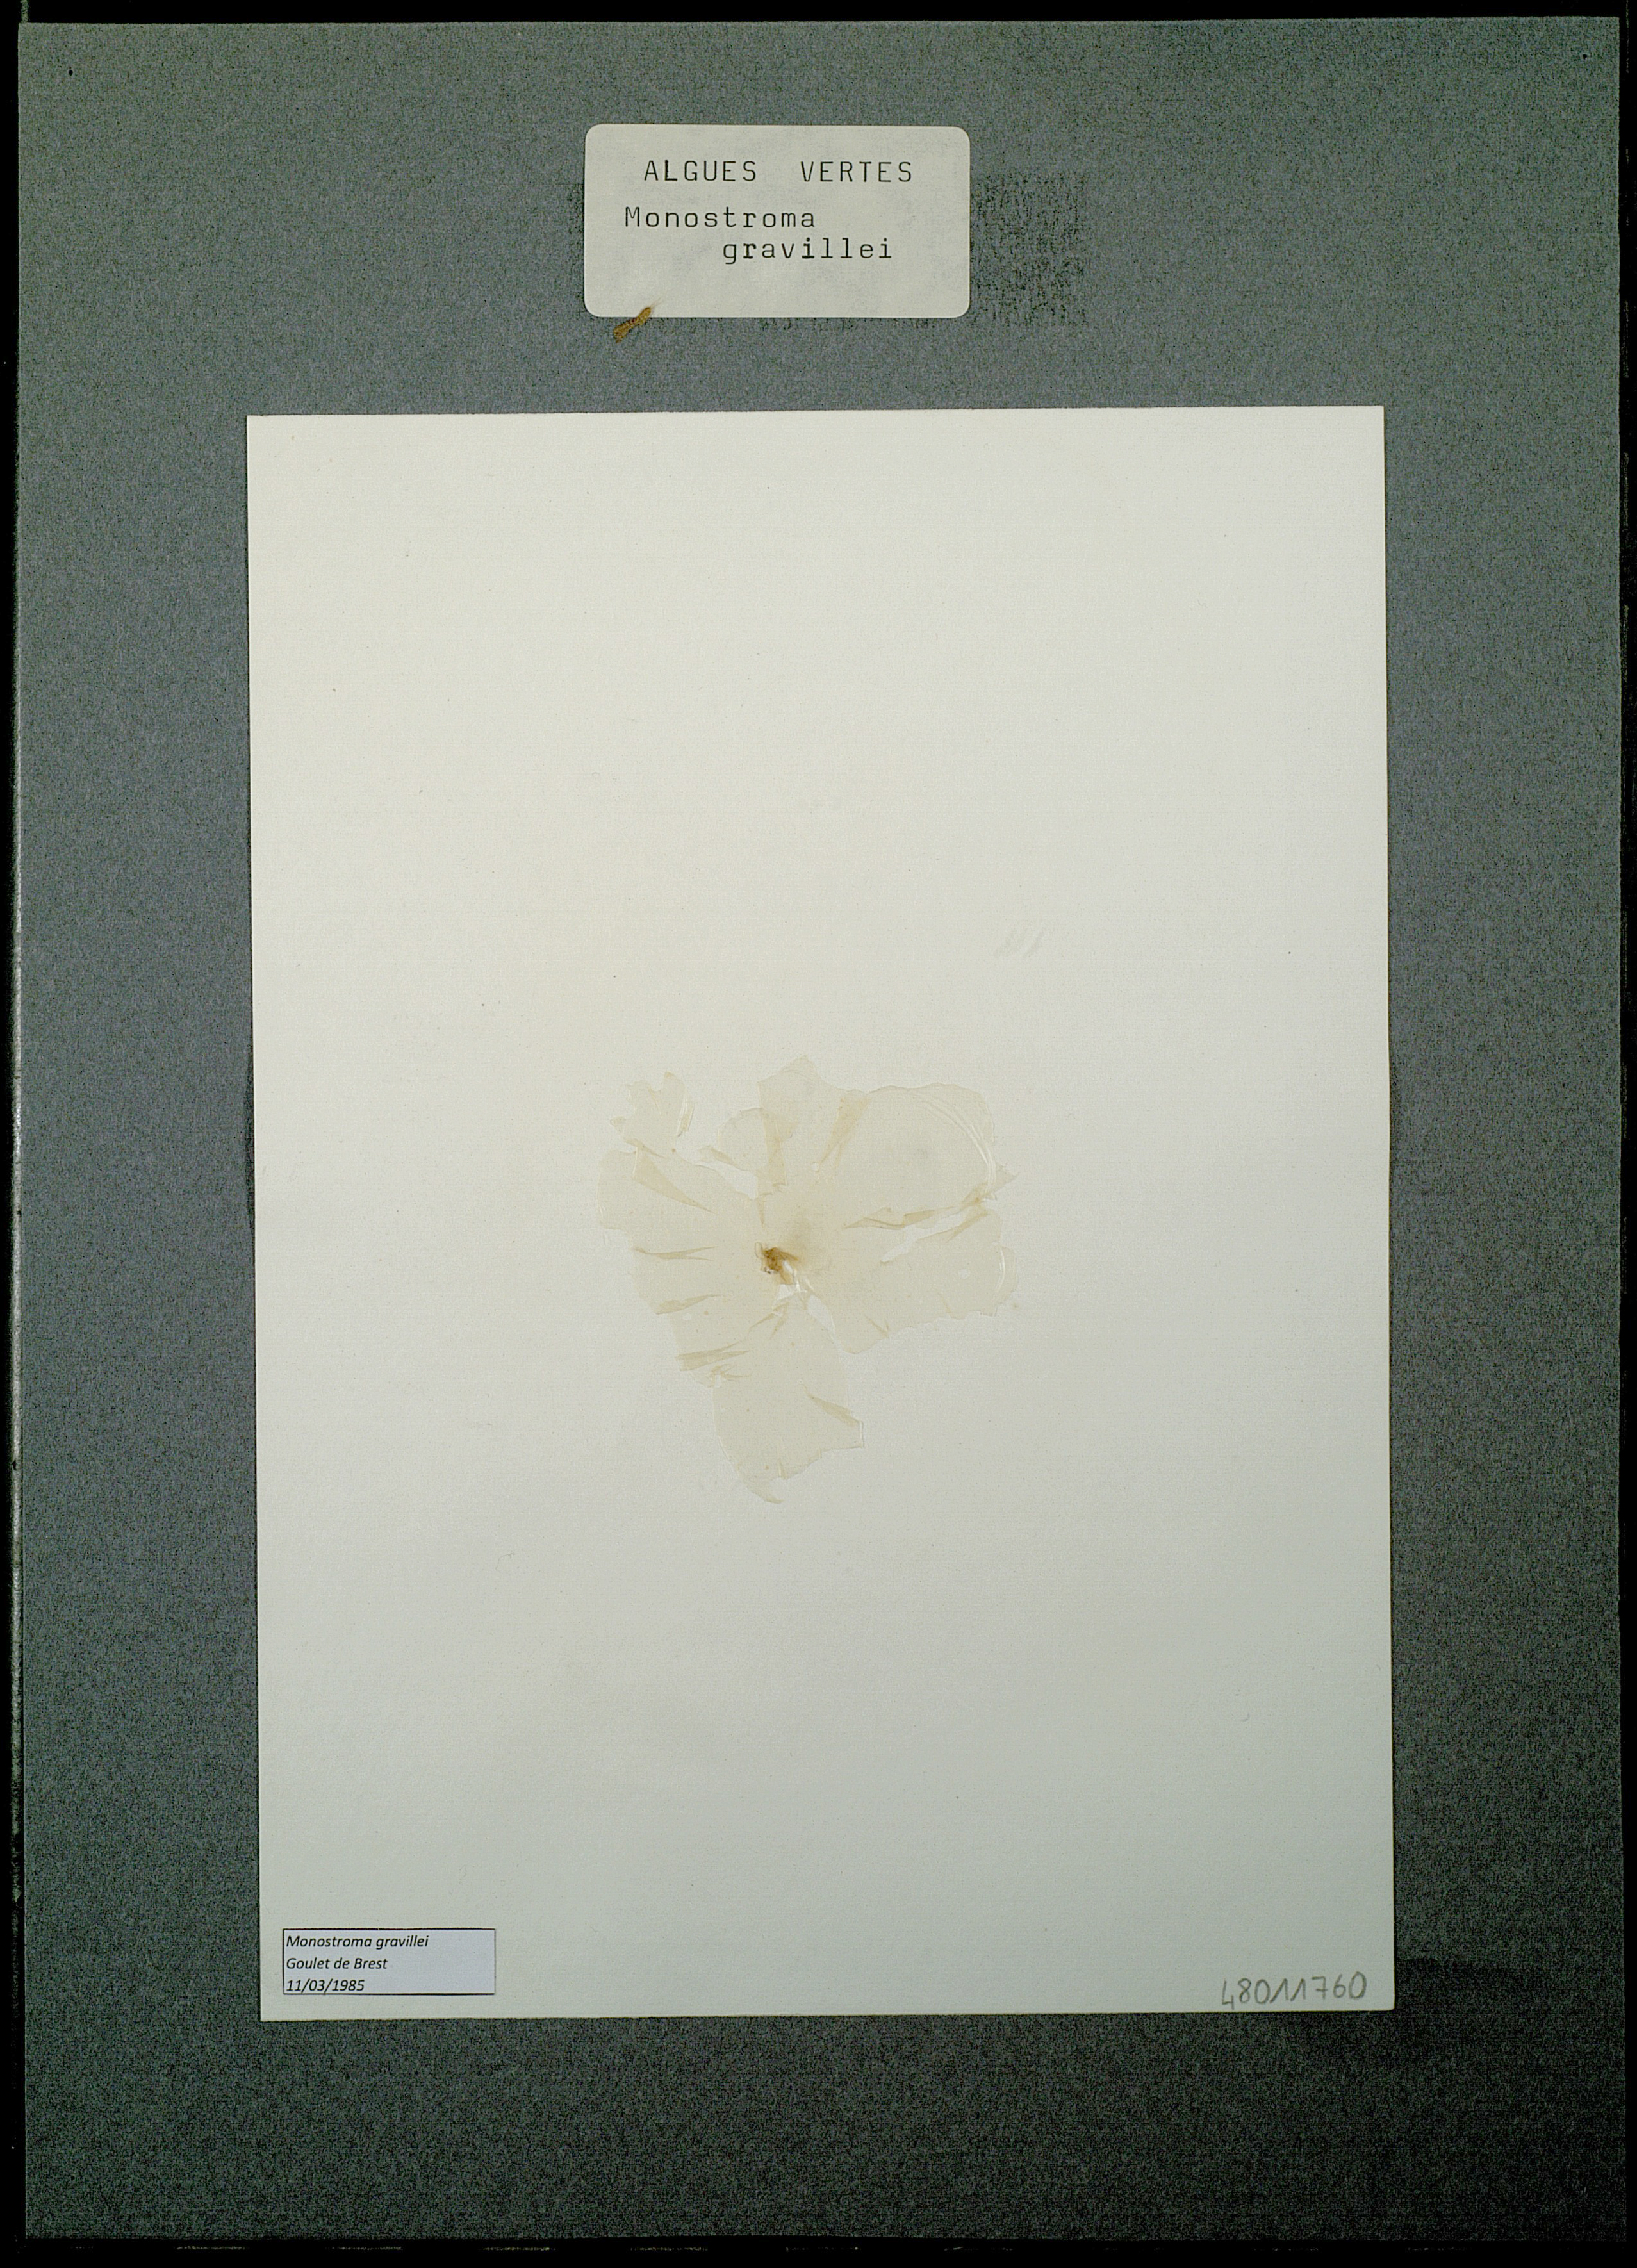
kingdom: Plantae
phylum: Chlorophyta
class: Ulvophyceae
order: Ulvales
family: Monostromataceae
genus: Monostroma
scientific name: Monostroma grevillei
